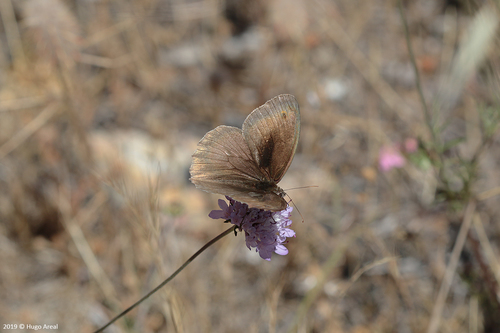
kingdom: Animalia
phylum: Arthropoda
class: Insecta
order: Lepidoptera
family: Nymphalidae
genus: Maniola
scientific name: Maniola jurtina
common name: Meadow brown
